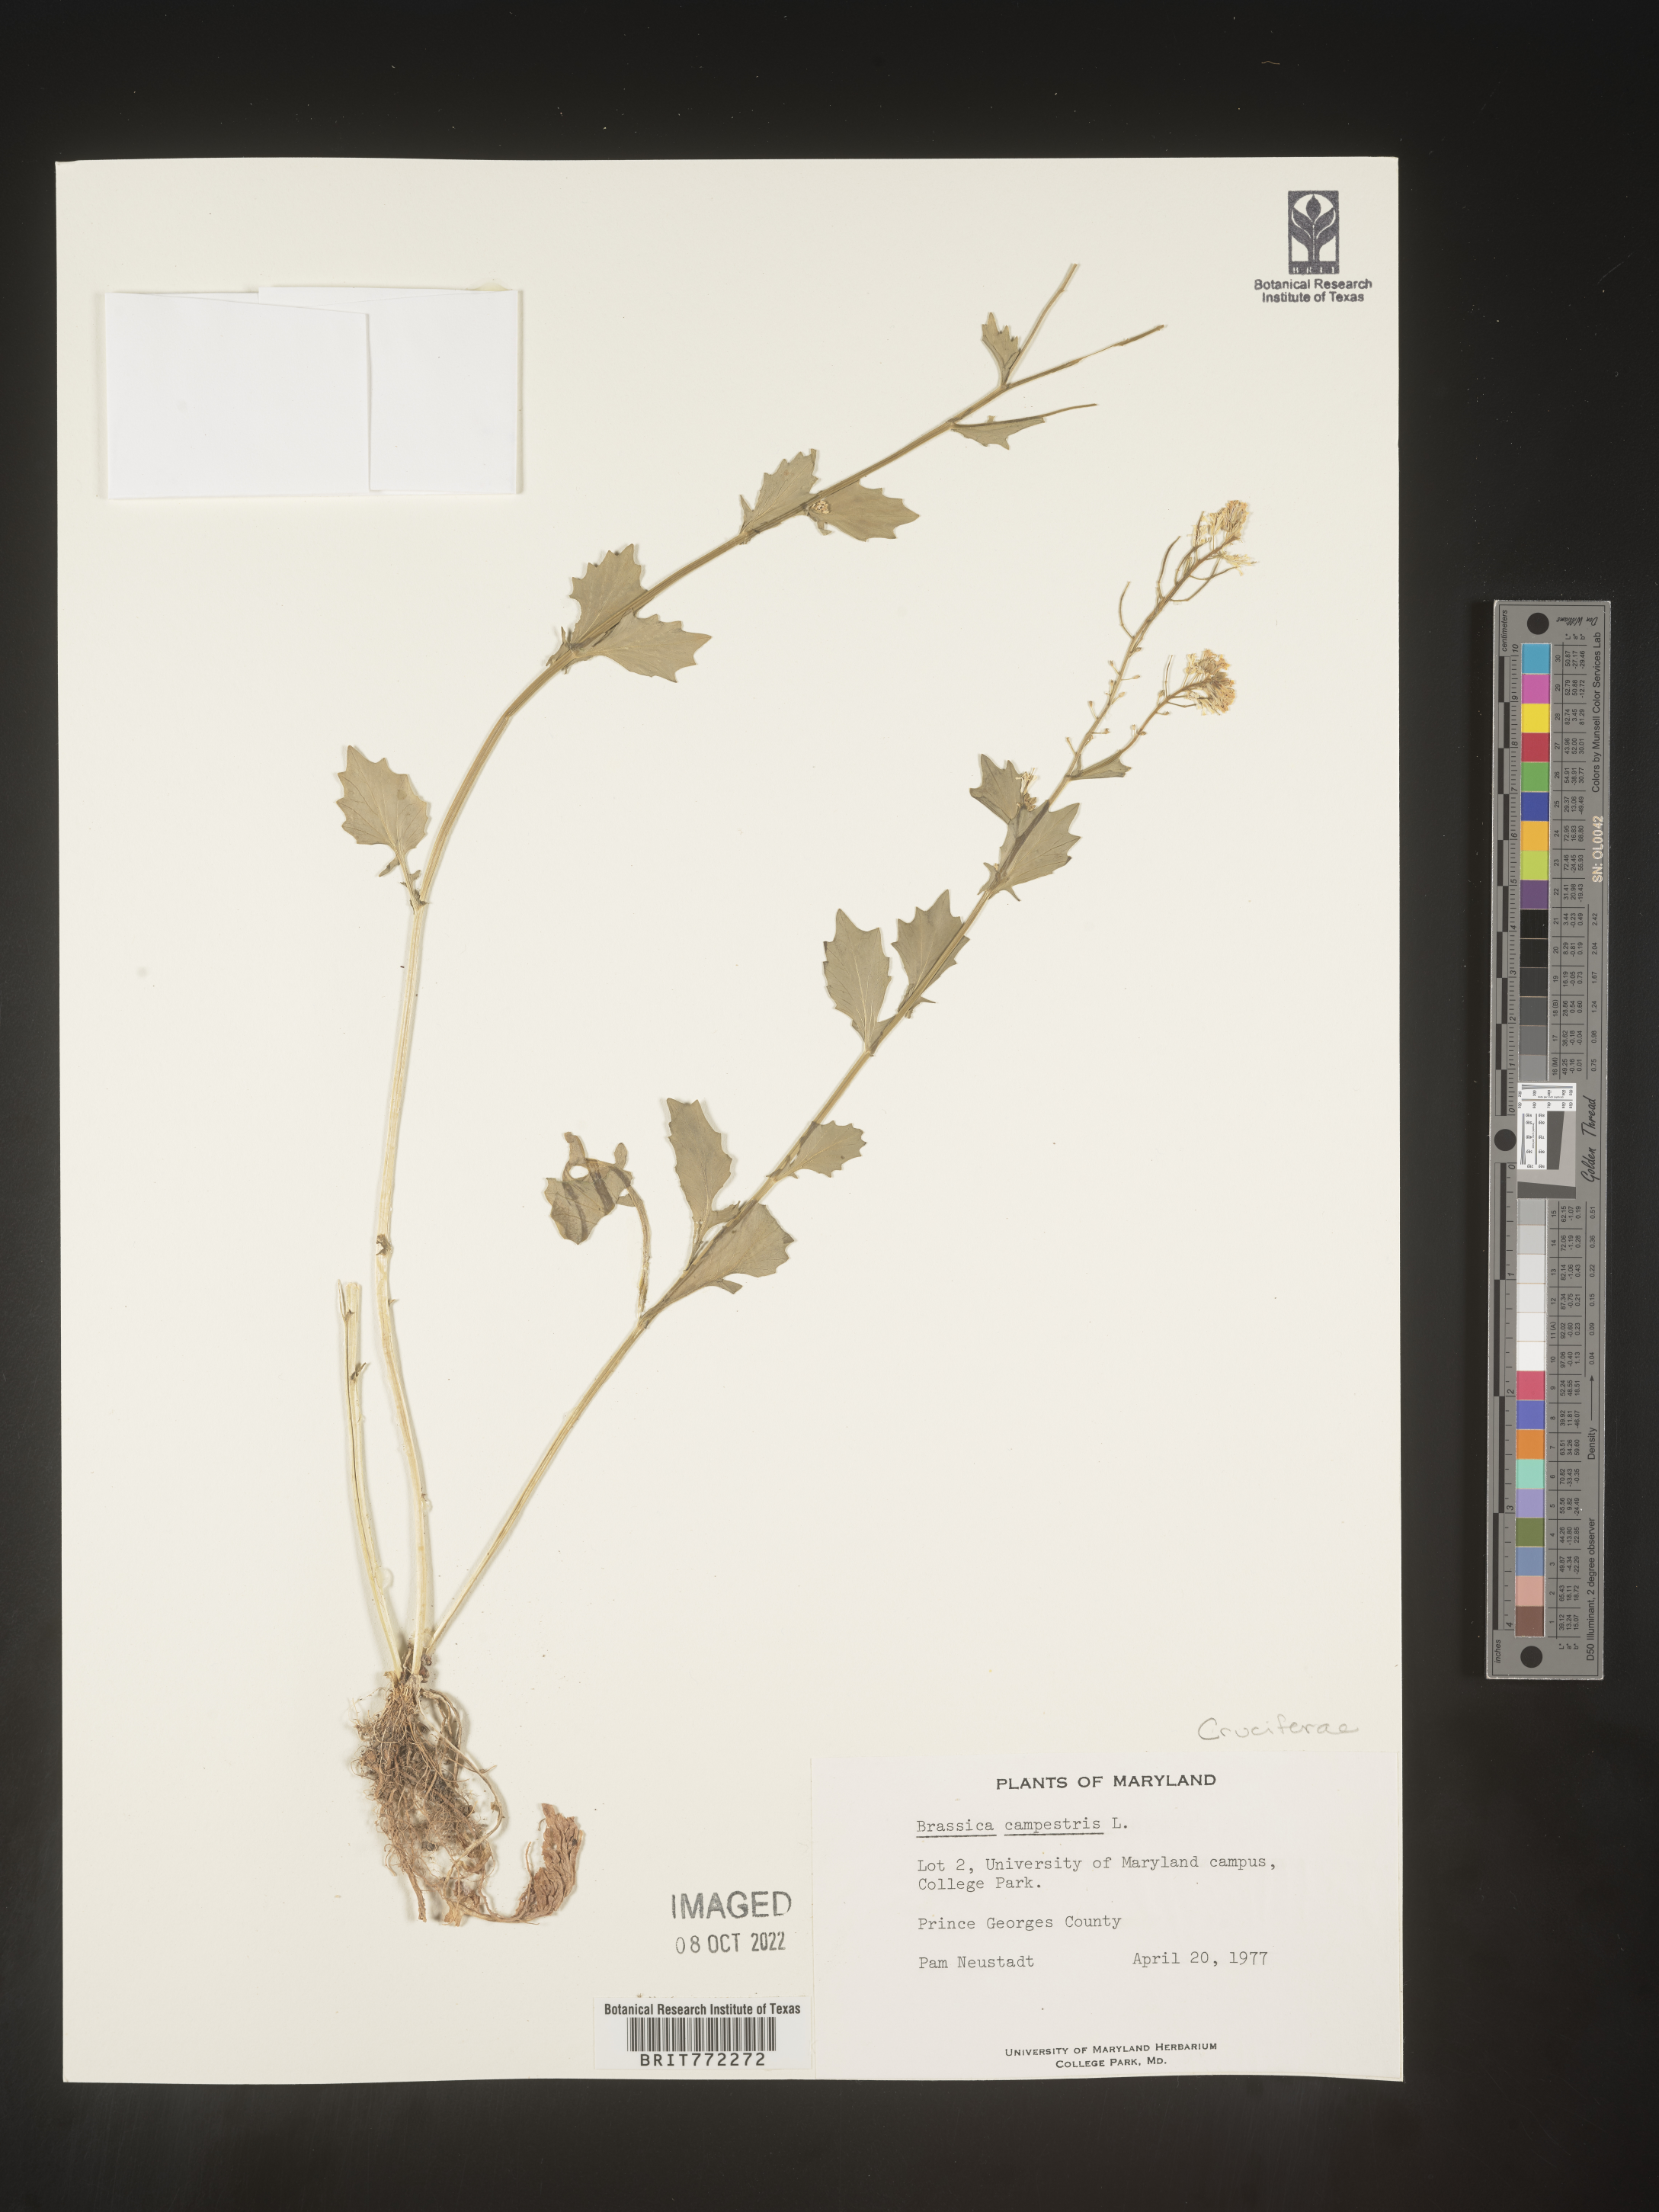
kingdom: Plantae
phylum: Tracheophyta
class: Magnoliopsida
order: Brassicales
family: Brassicaceae
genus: Brassica
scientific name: Brassica
